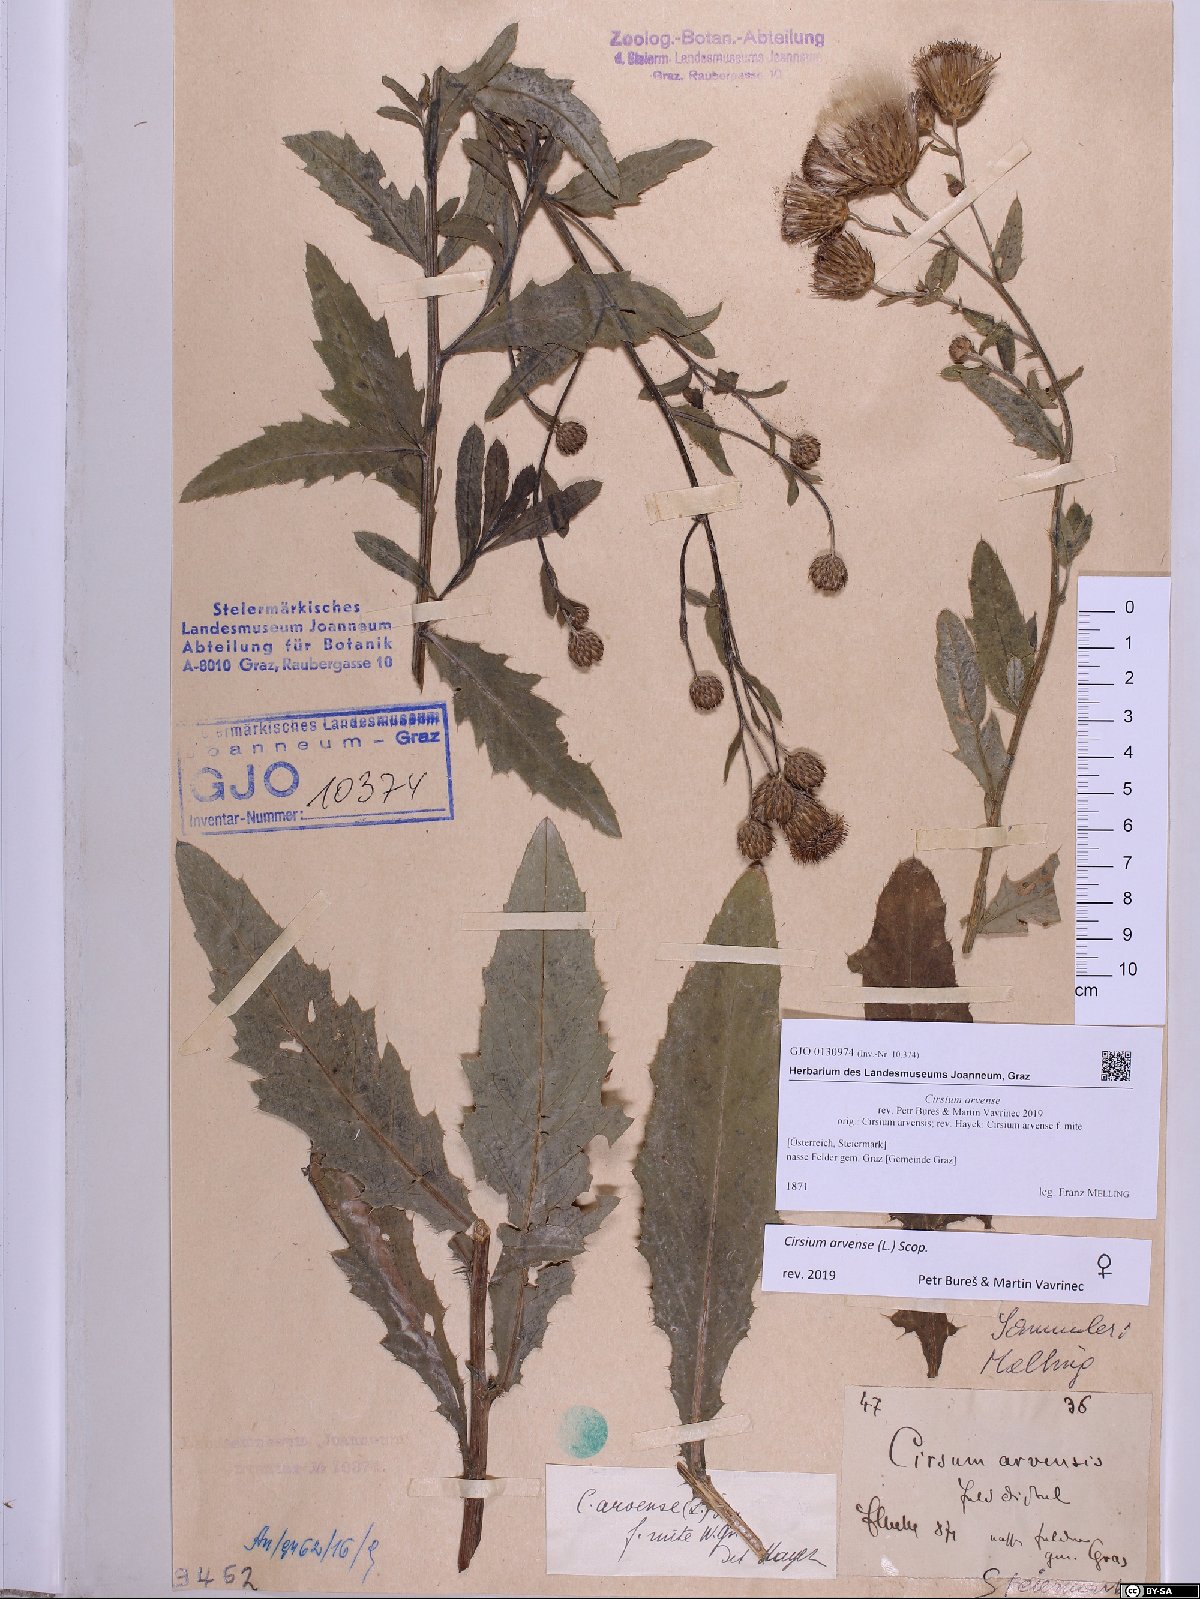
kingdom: Plantae
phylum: Tracheophyta
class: Magnoliopsida
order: Asterales
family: Asteraceae
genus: Cirsium
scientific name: Cirsium arvense
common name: Creeping thistle
